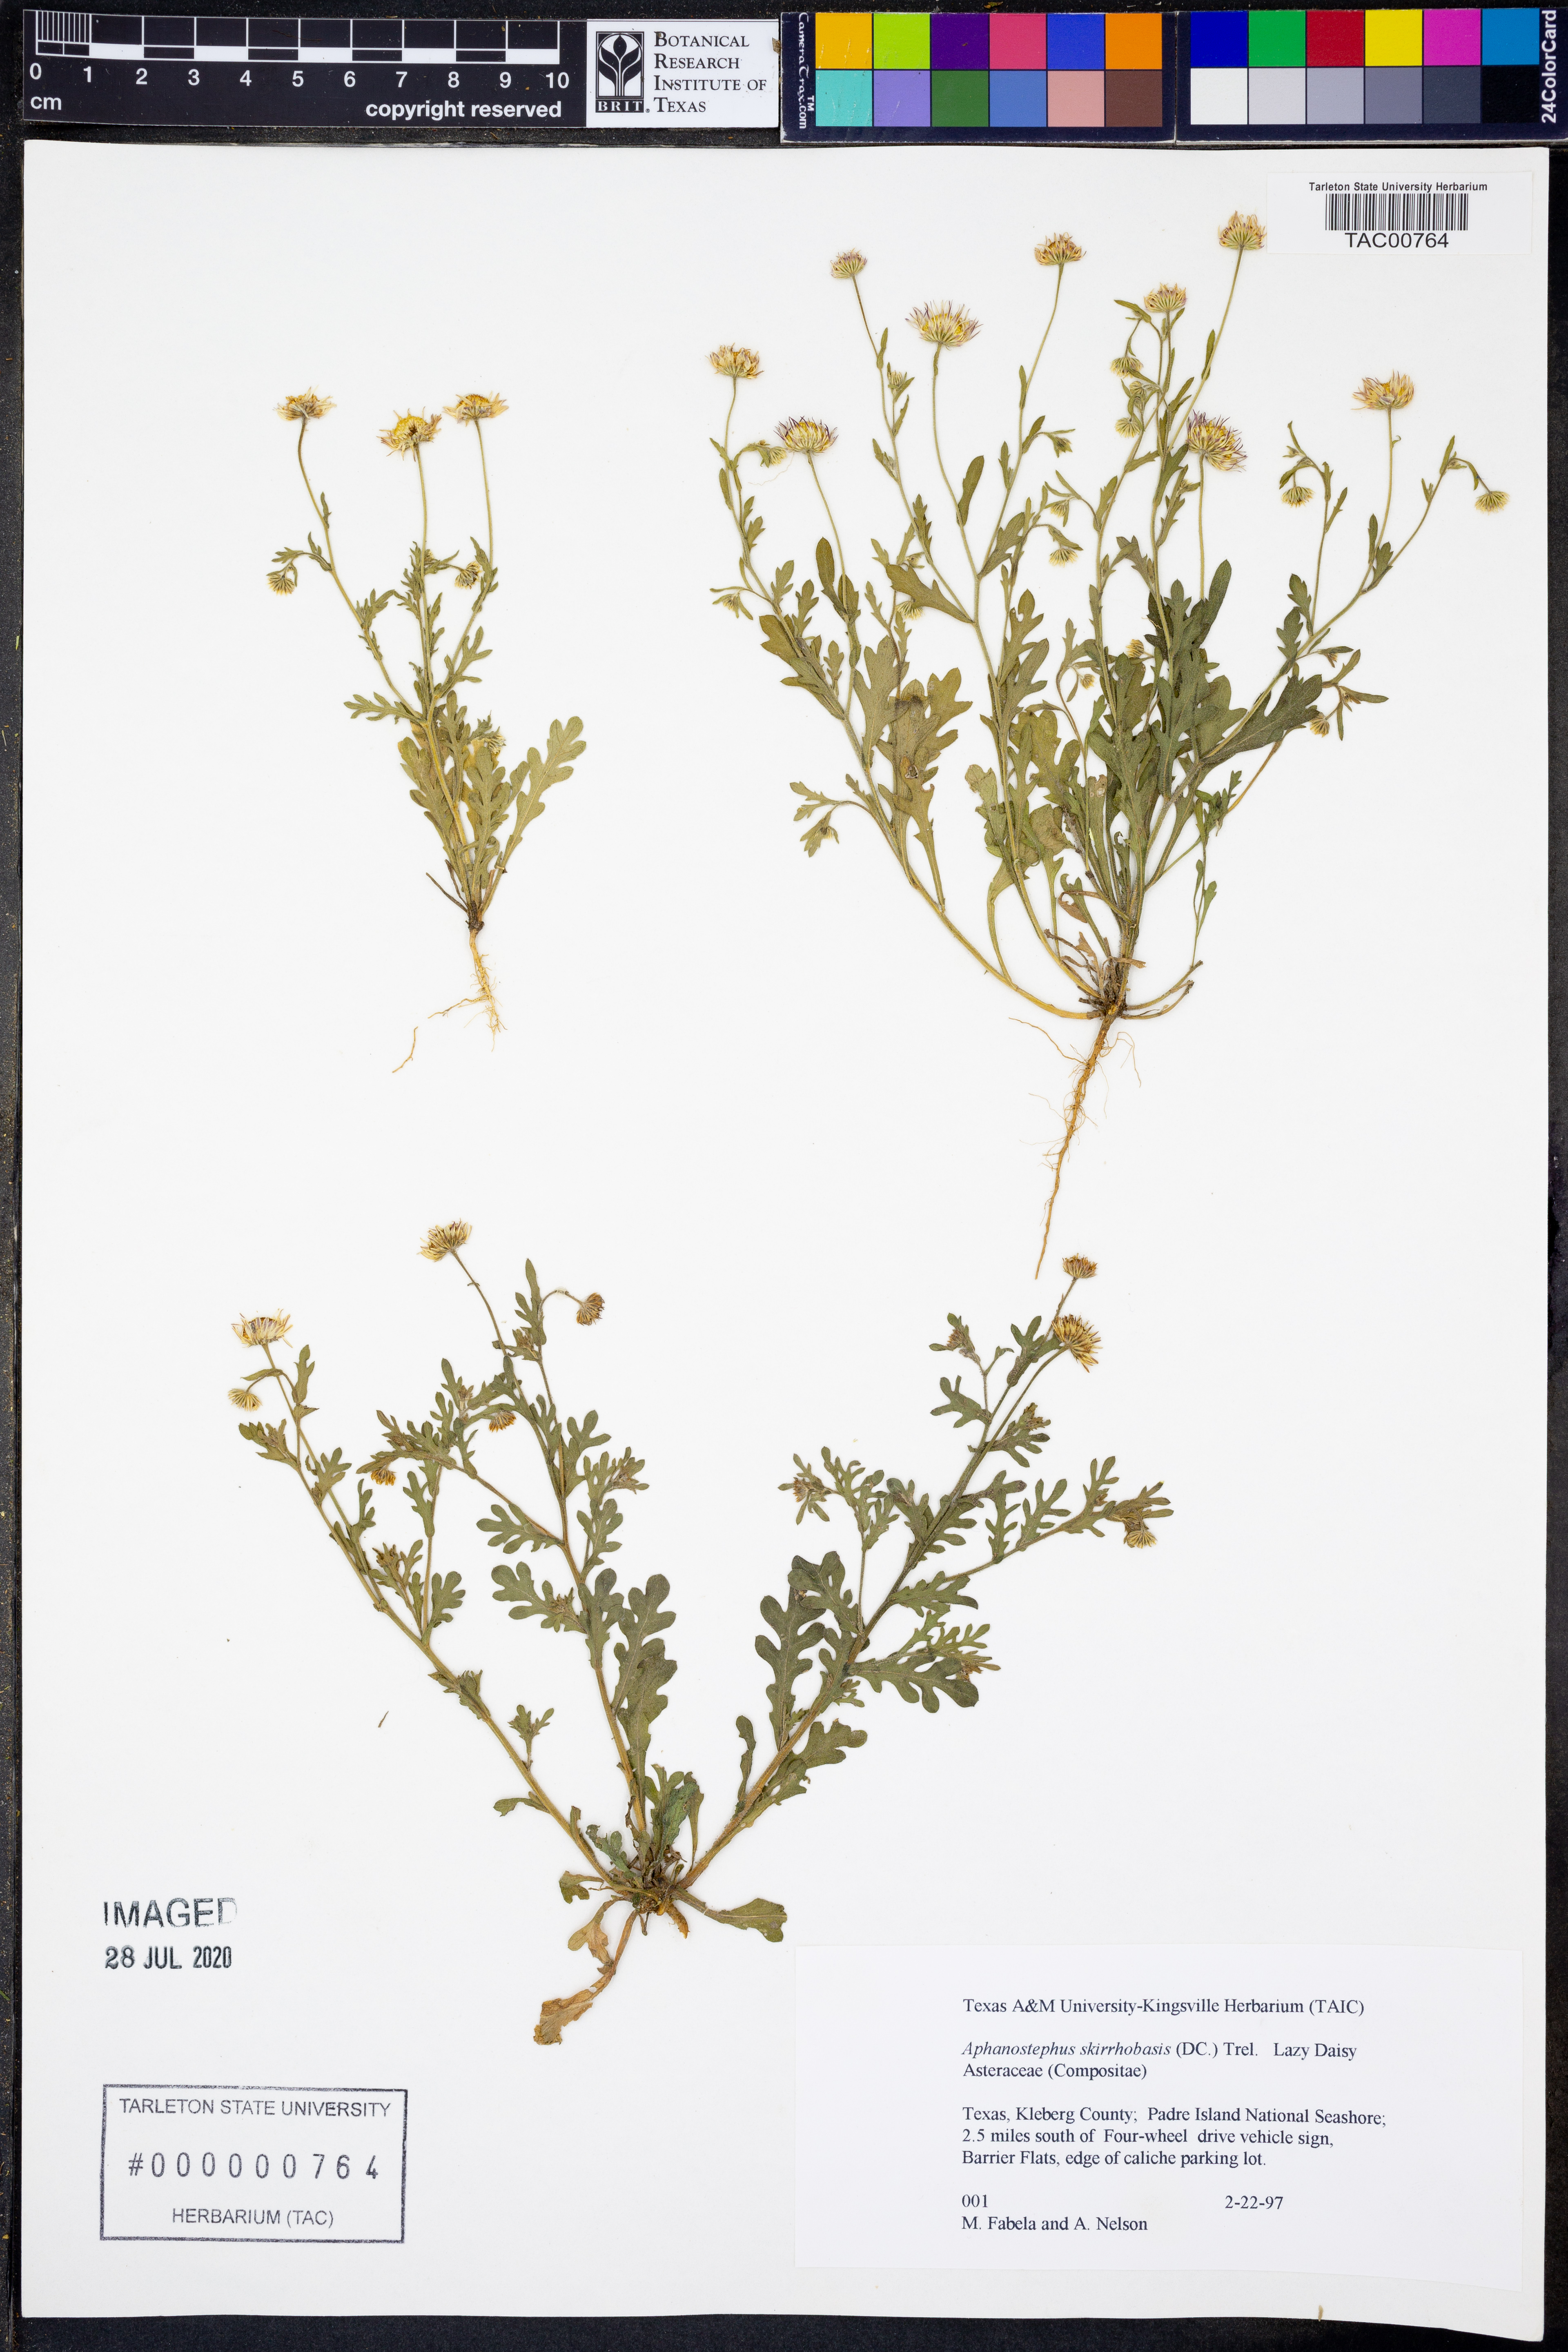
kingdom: Plantae
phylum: Tracheophyta
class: Magnoliopsida
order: Asterales
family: Asteraceae
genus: Aphanostephus
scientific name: Aphanostephus skirrhobasis
